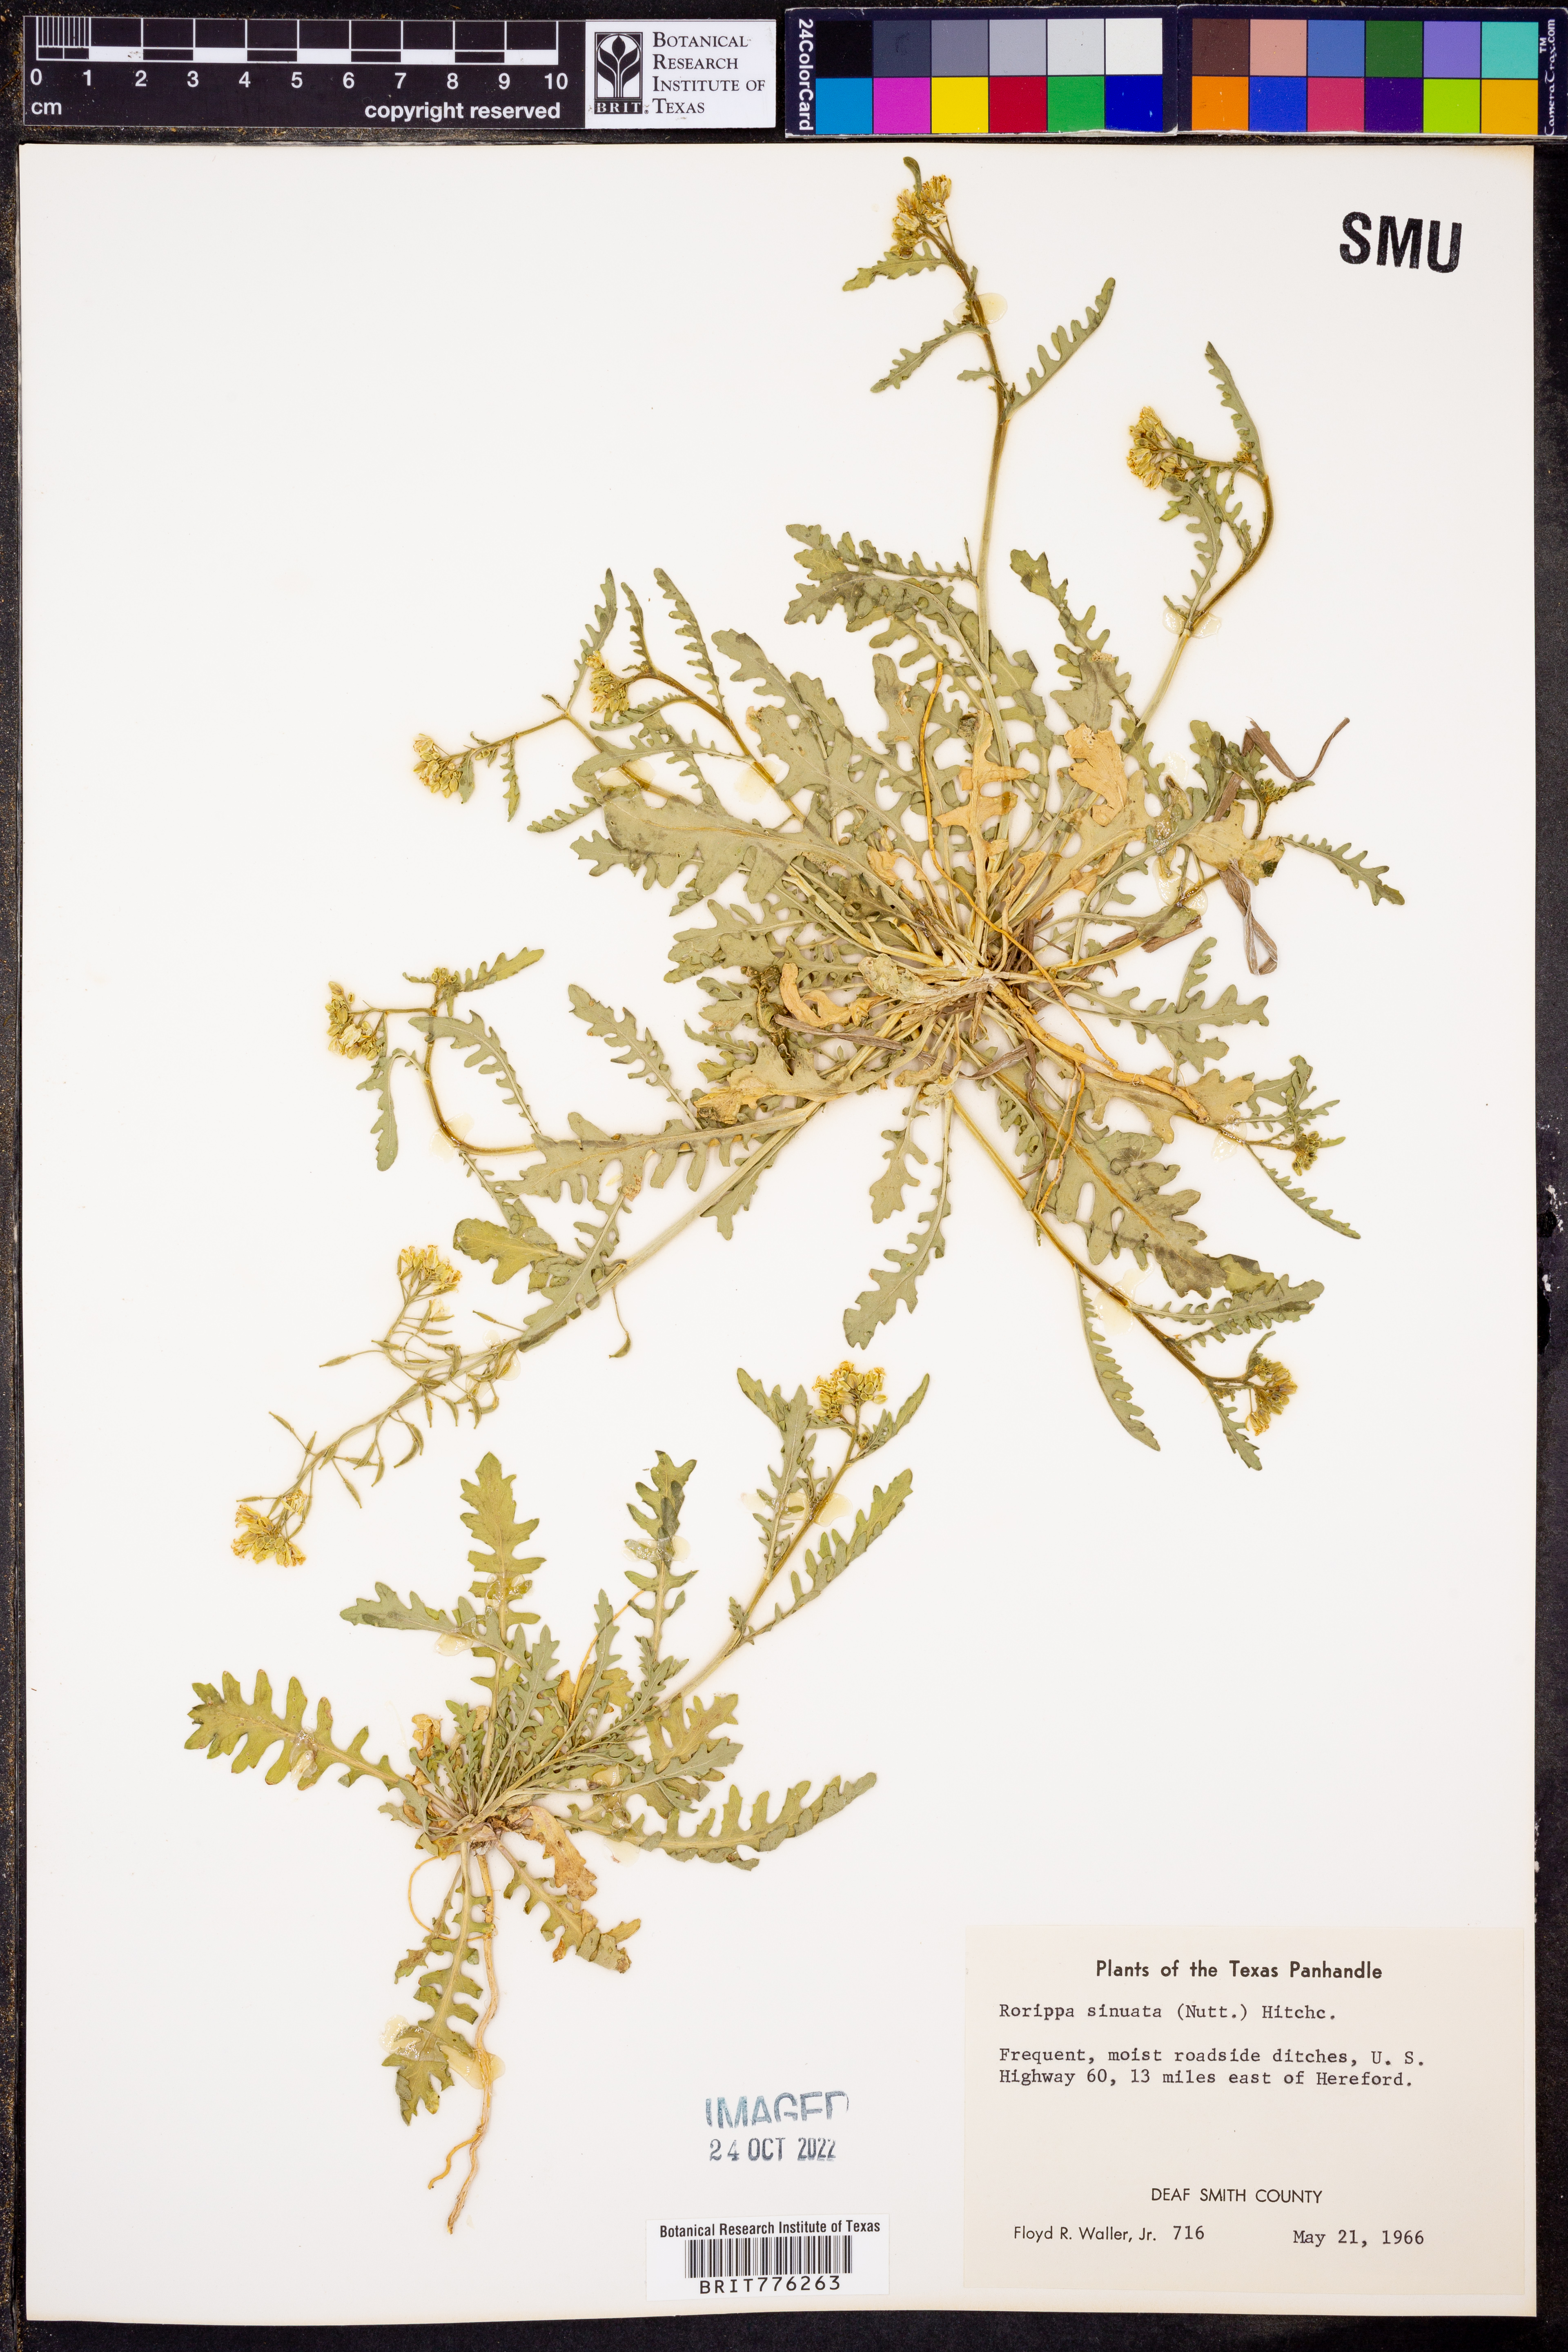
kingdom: Plantae
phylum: Tracheophyta
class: Magnoliopsida
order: Brassicales
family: Brassicaceae
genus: Rorippa
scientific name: Rorippa sinuata
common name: Spread yellow cress
